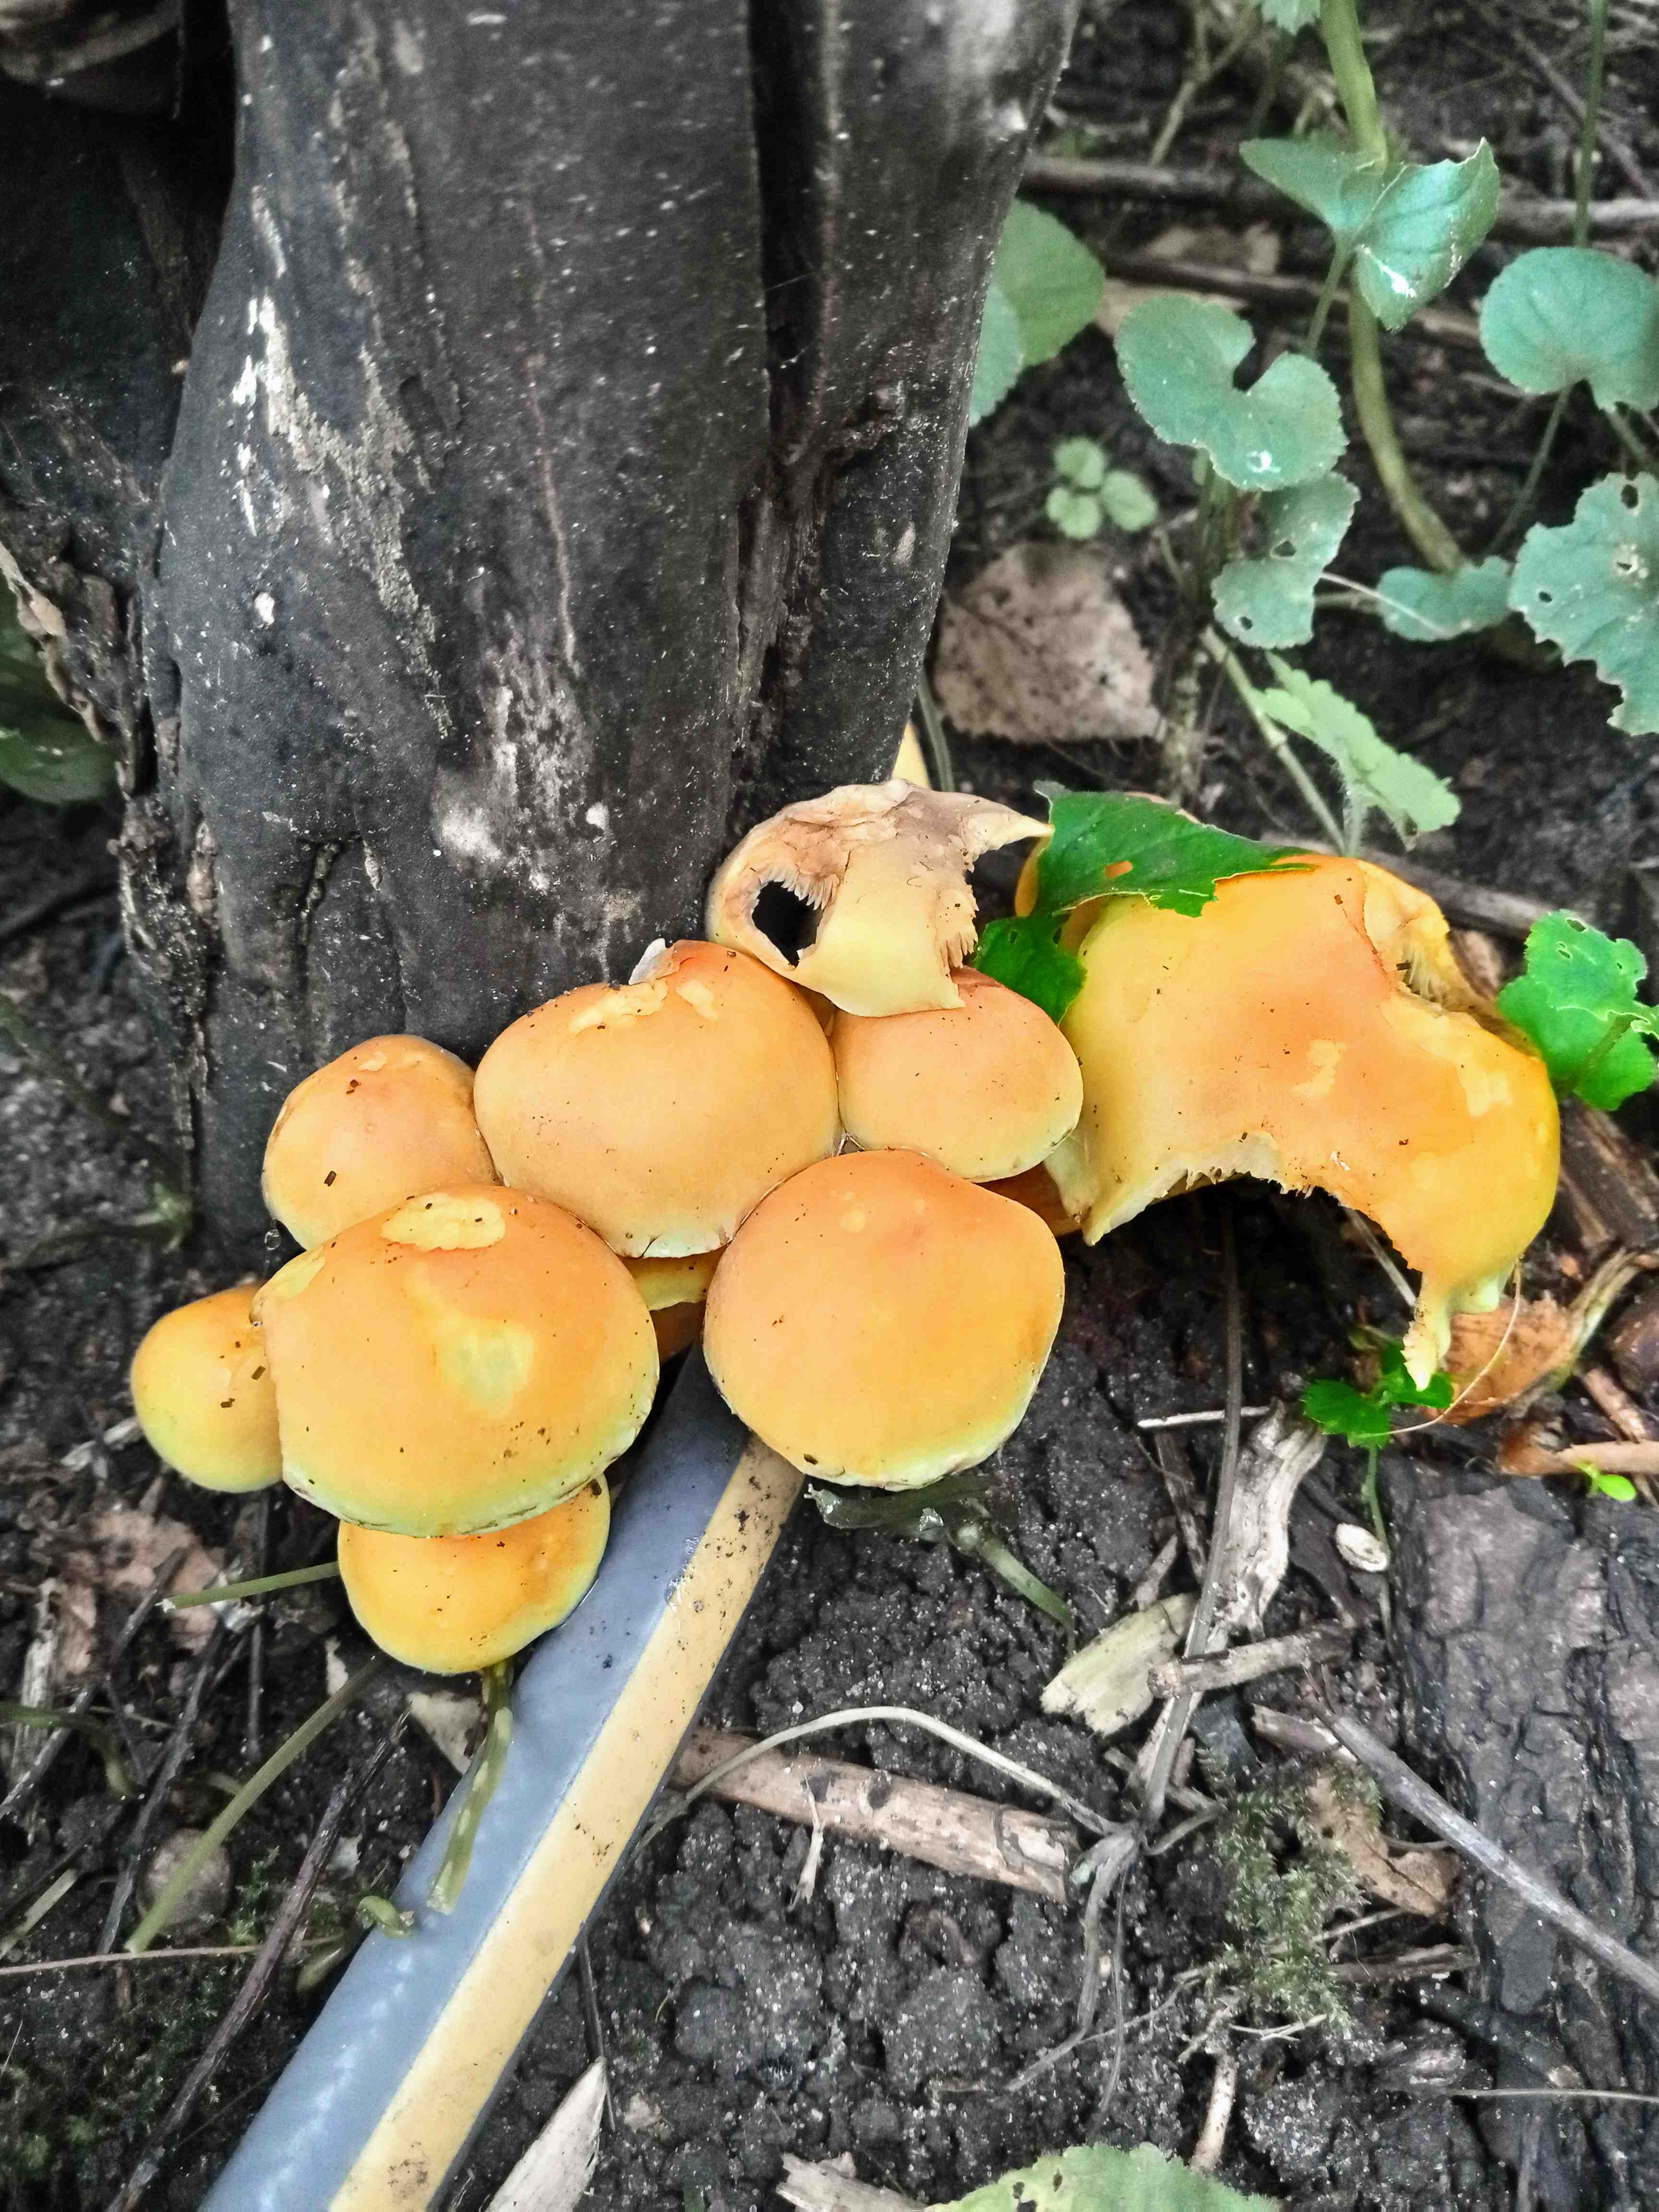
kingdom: Fungi
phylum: Basidiomycota
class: Agaricomycetes
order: Agaricales
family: Strophariaceae
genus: Hypholoma
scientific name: Hypholoma fasciculare
